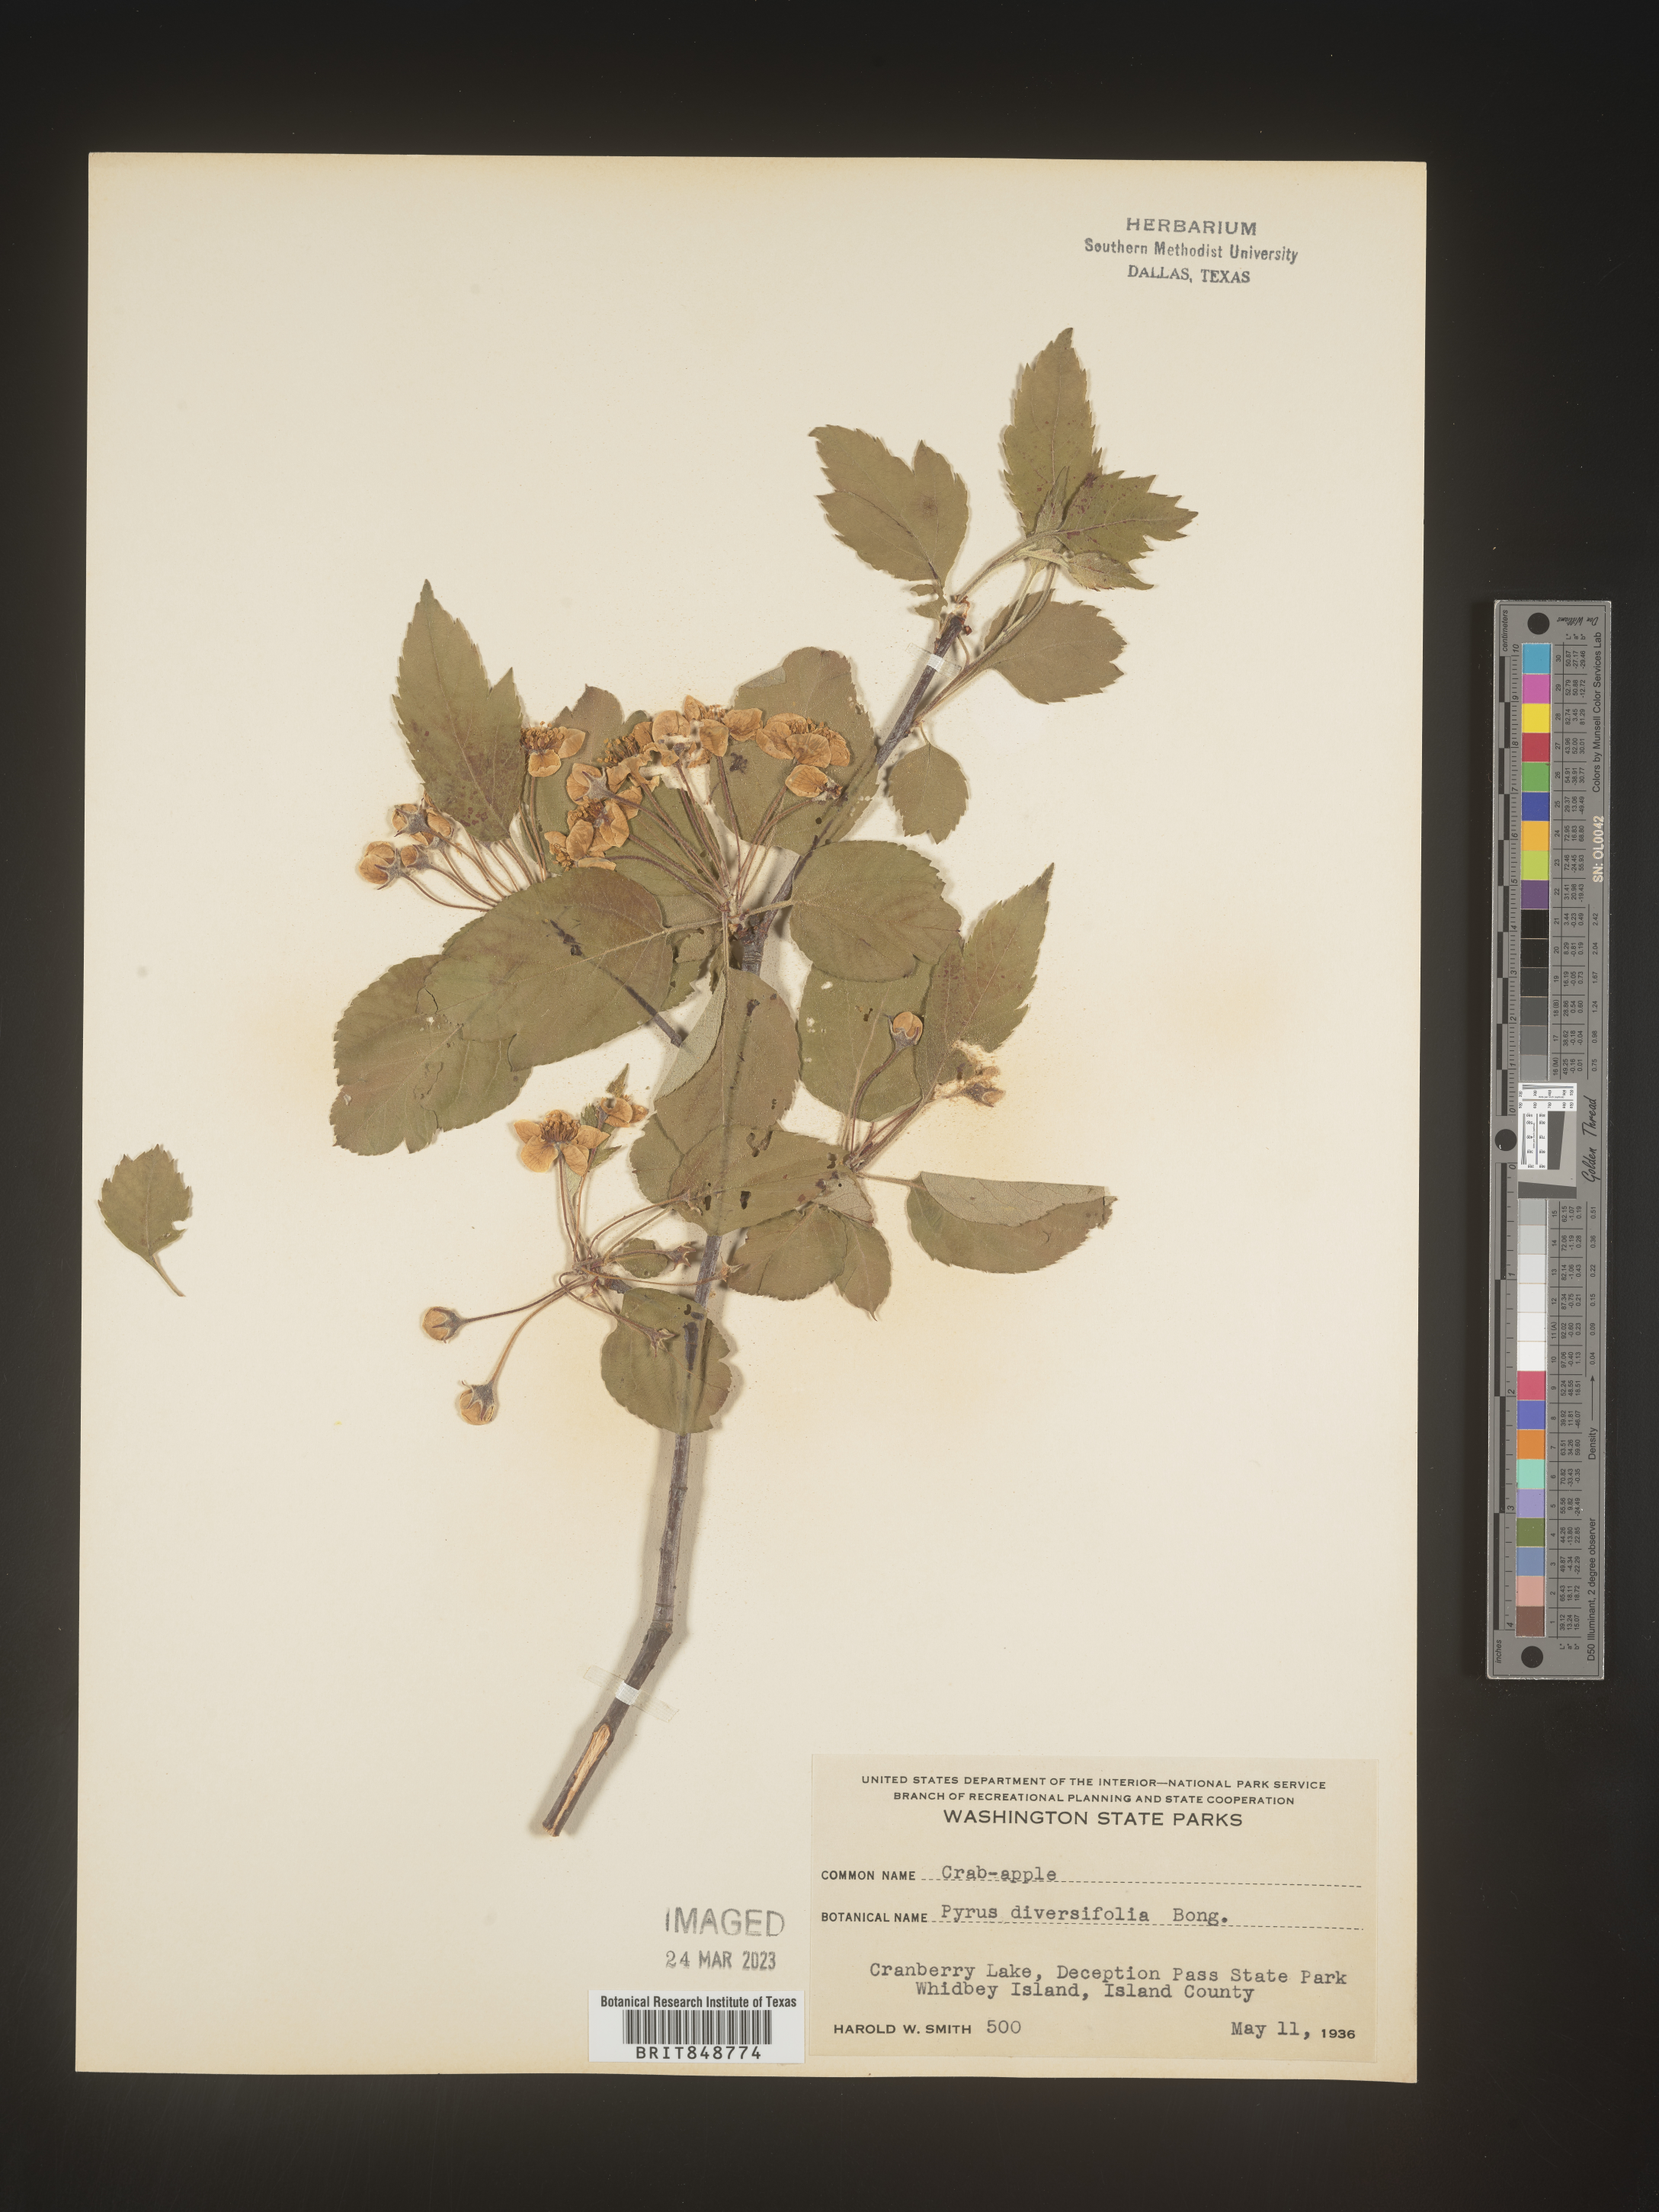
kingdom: Plantae
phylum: Tracheophyta
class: Magnoliopsida
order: Rosales
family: Rosaceae
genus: Malus
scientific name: Malus
